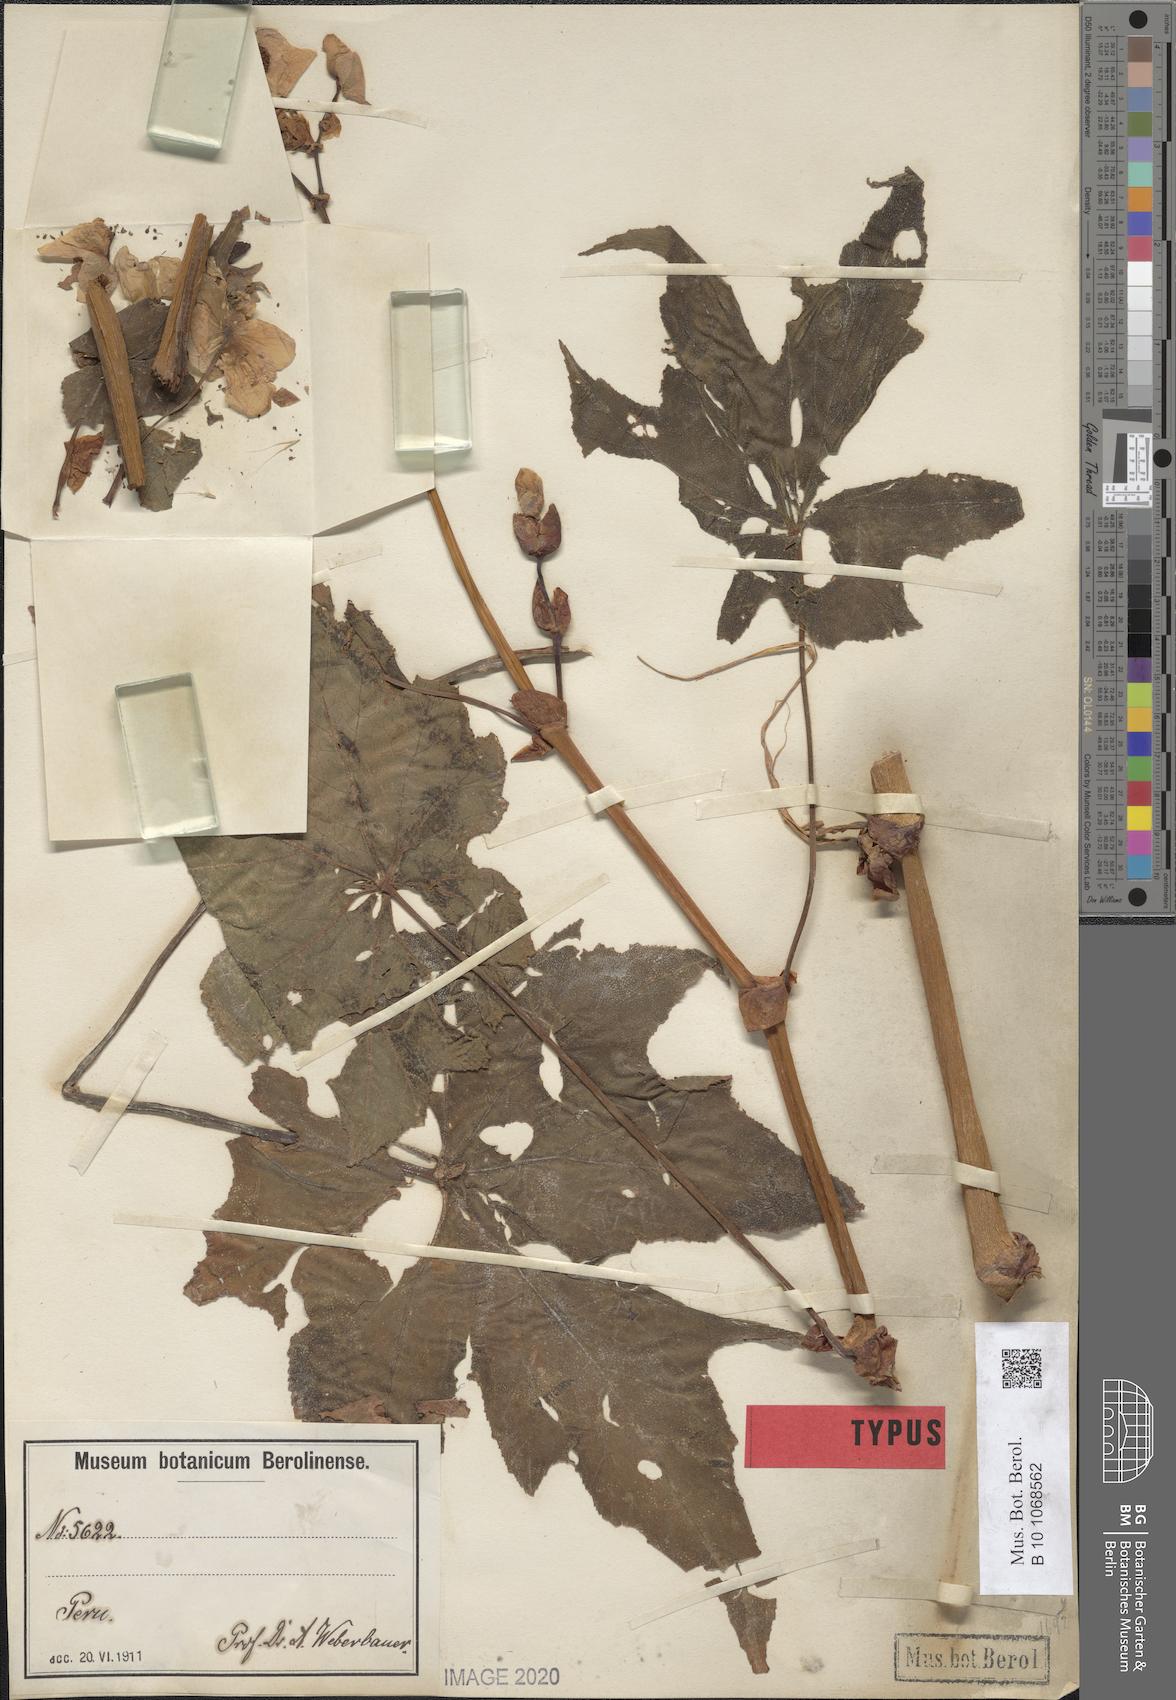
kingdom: Plantae
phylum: Tracheophyta
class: Magnoliopsida
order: Cucurbitales
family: Begoniaceae
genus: Begonia
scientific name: Begonia acerifolia
